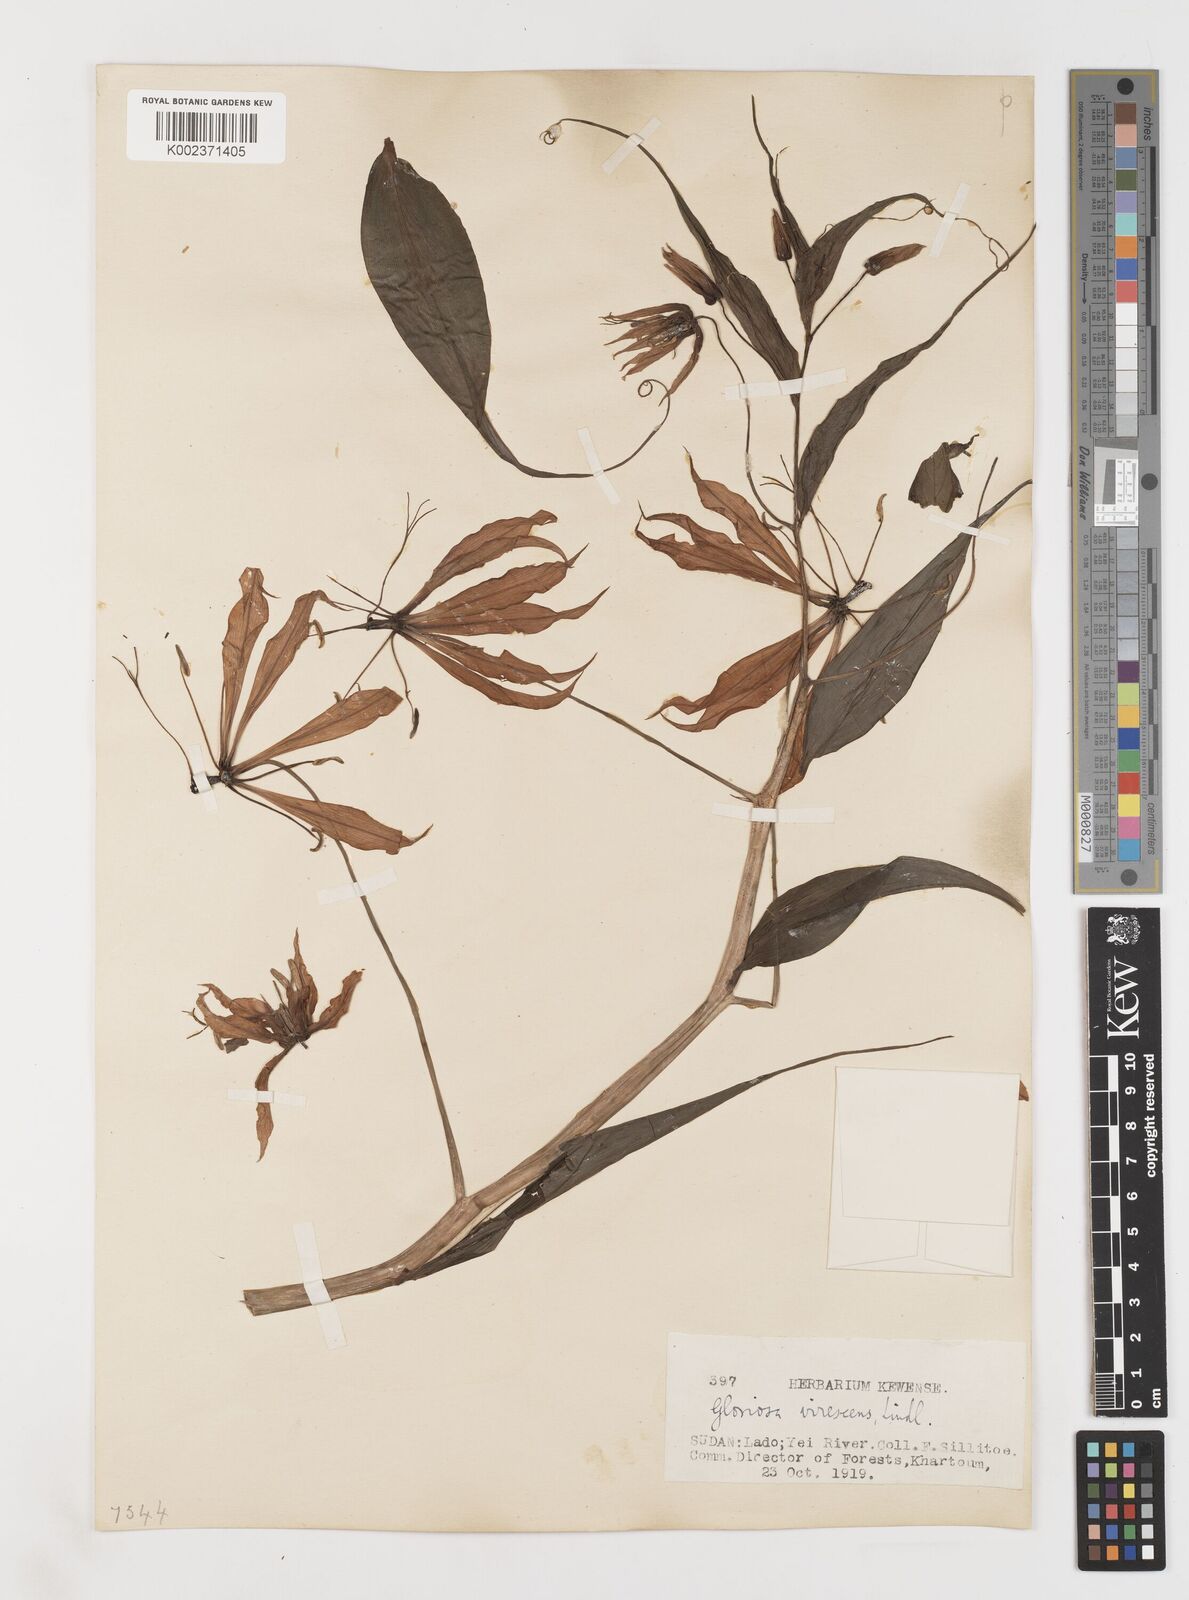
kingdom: Plantae
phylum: Tracheophyta
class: Liliopsida
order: Liliales
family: Colchicaceae
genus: Gloriosa
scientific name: Gloriosa simplex
